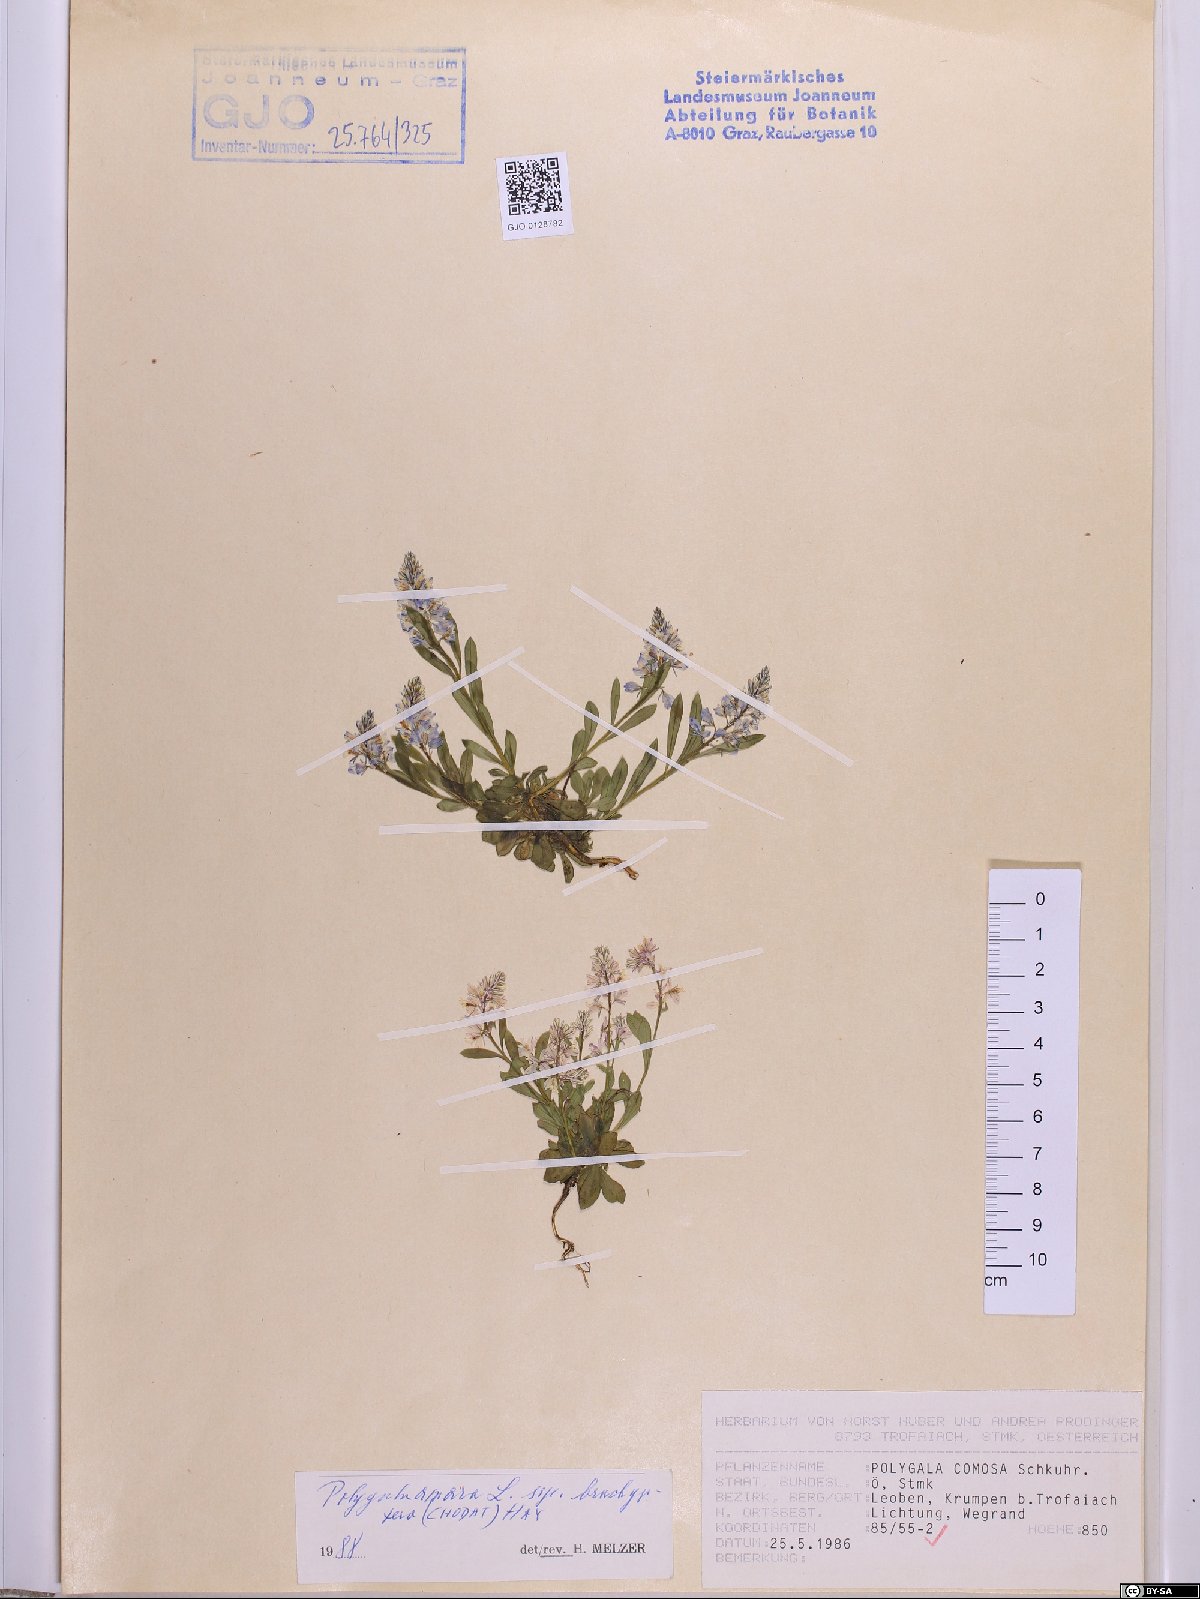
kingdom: Plantae
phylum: Tracheophyta
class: Magnoliopsida
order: Fabales
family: Polygalaceae
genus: Polygala
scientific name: Polygala amara
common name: Milkwort
